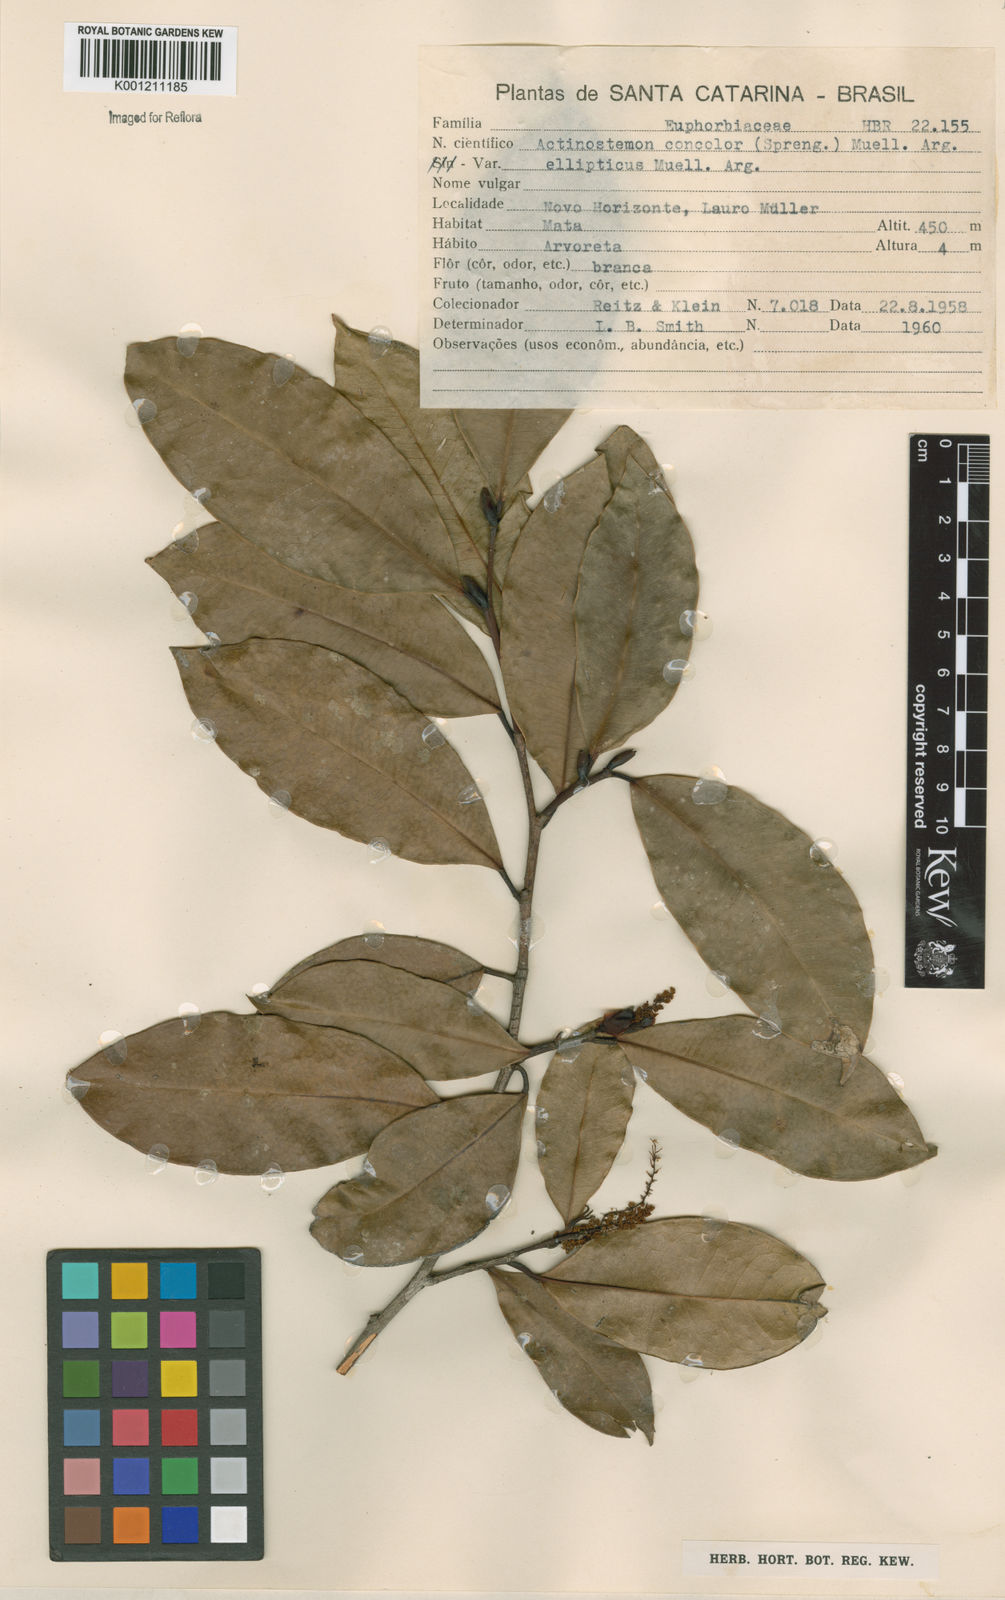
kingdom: Plantae
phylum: Tracheophyta
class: Magnoliopsida
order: Malpighiales
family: Euphorbiaceae
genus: Actinostemon
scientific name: Actinostemon
